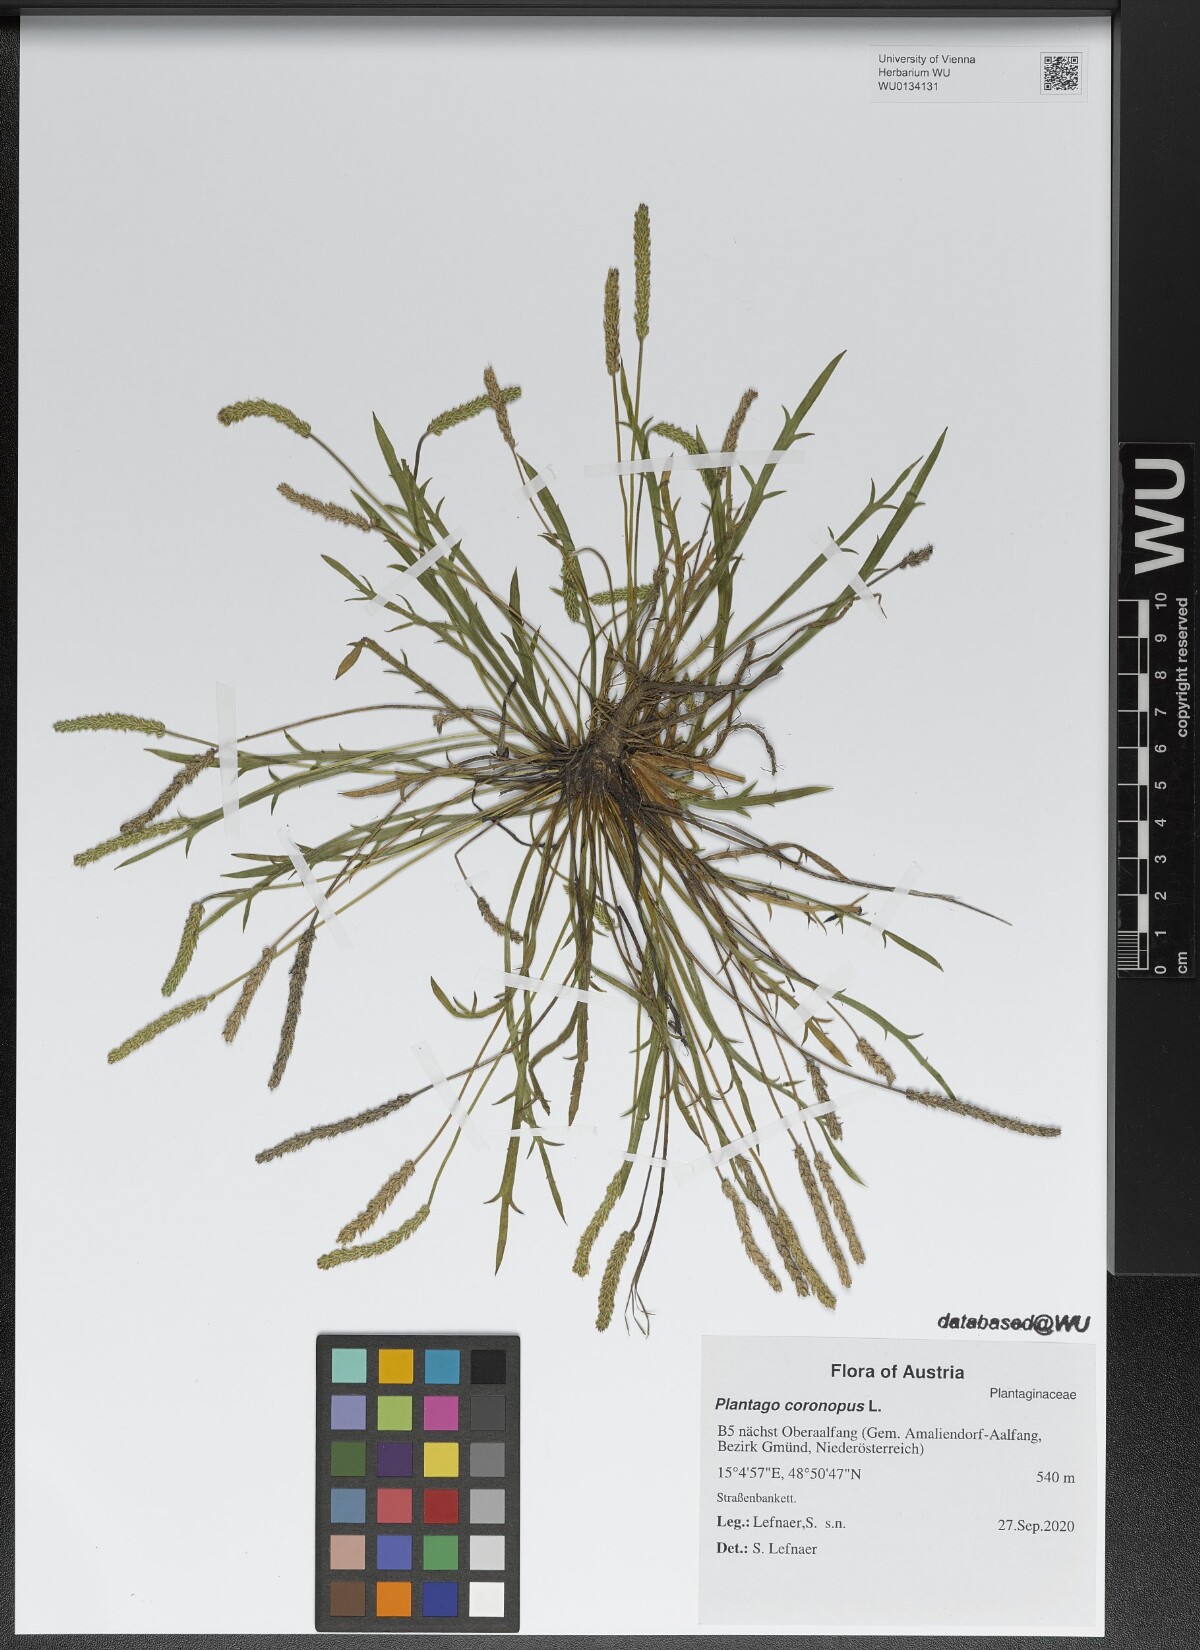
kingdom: Plantae
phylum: Tracheophyta
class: Magnoliopsida
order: Lamiales
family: Plantaginaceae
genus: Plantago
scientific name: Plantago coronopus
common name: Buck's-horn plantain
